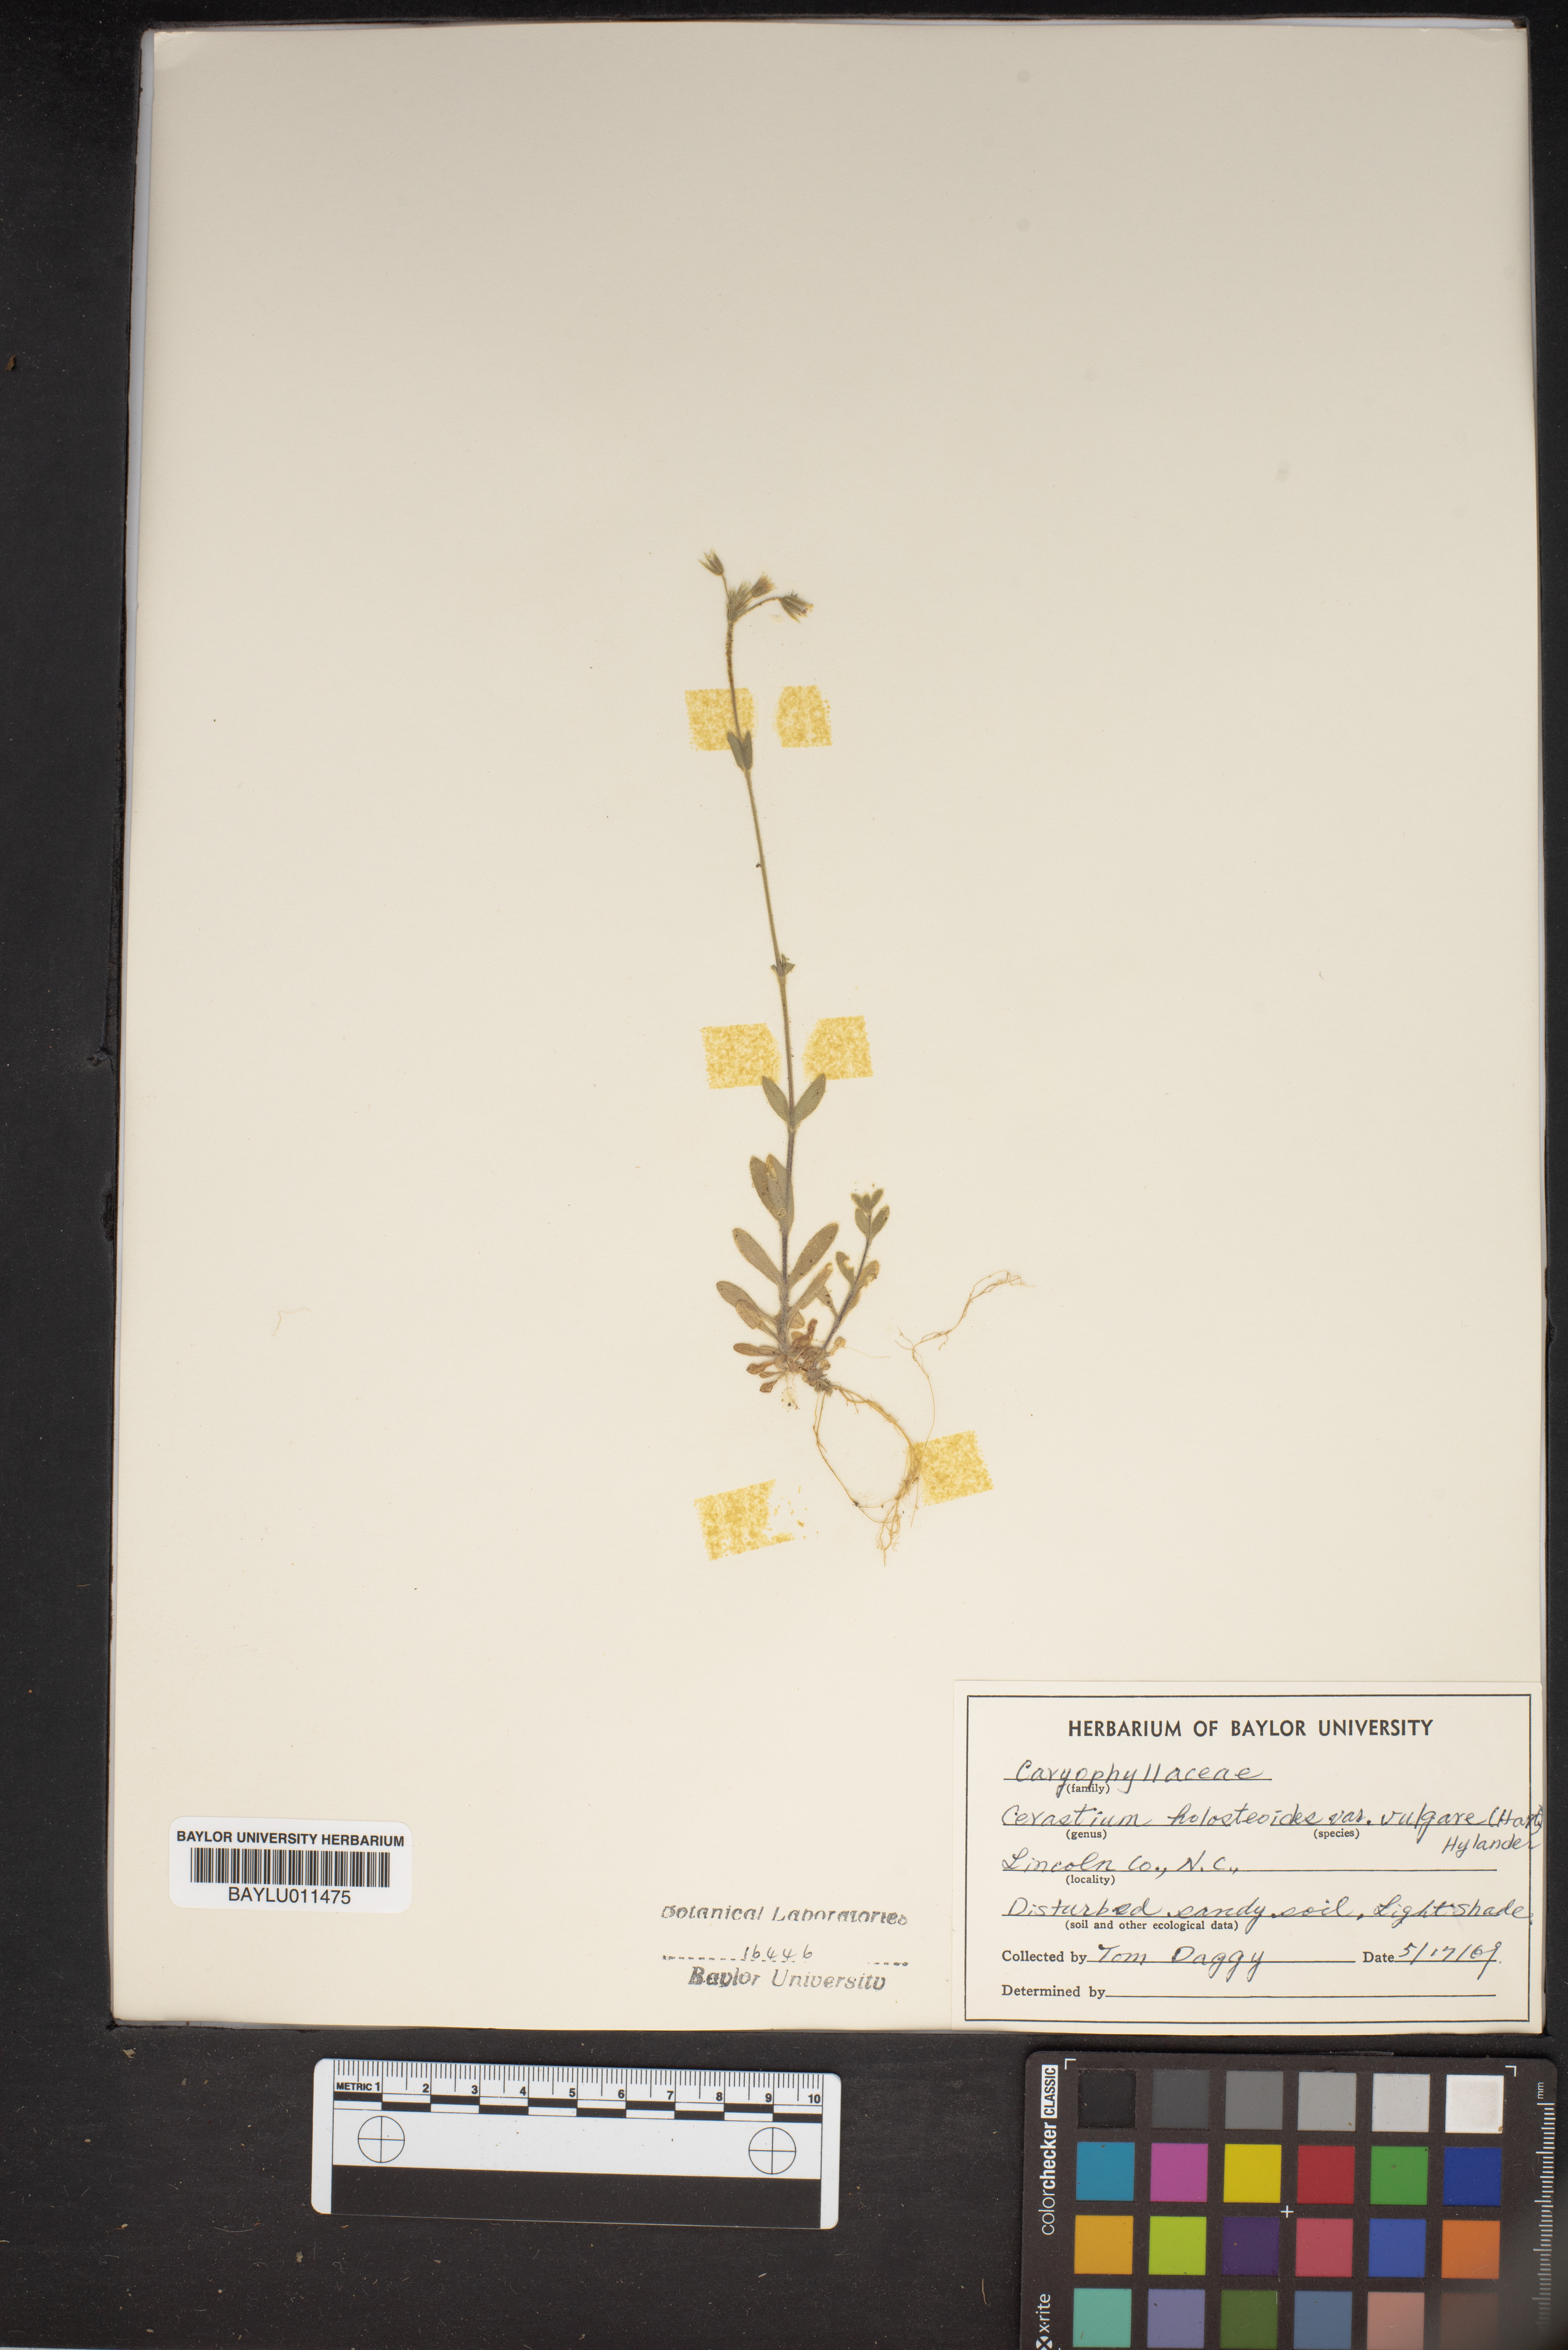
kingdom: Plantae
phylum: Tracheophyta
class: Magnoliopsida
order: Caryophyllales
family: Caryophyllaceae
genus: Cerastium
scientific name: Cerastium holosteoides
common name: Big chickweed
